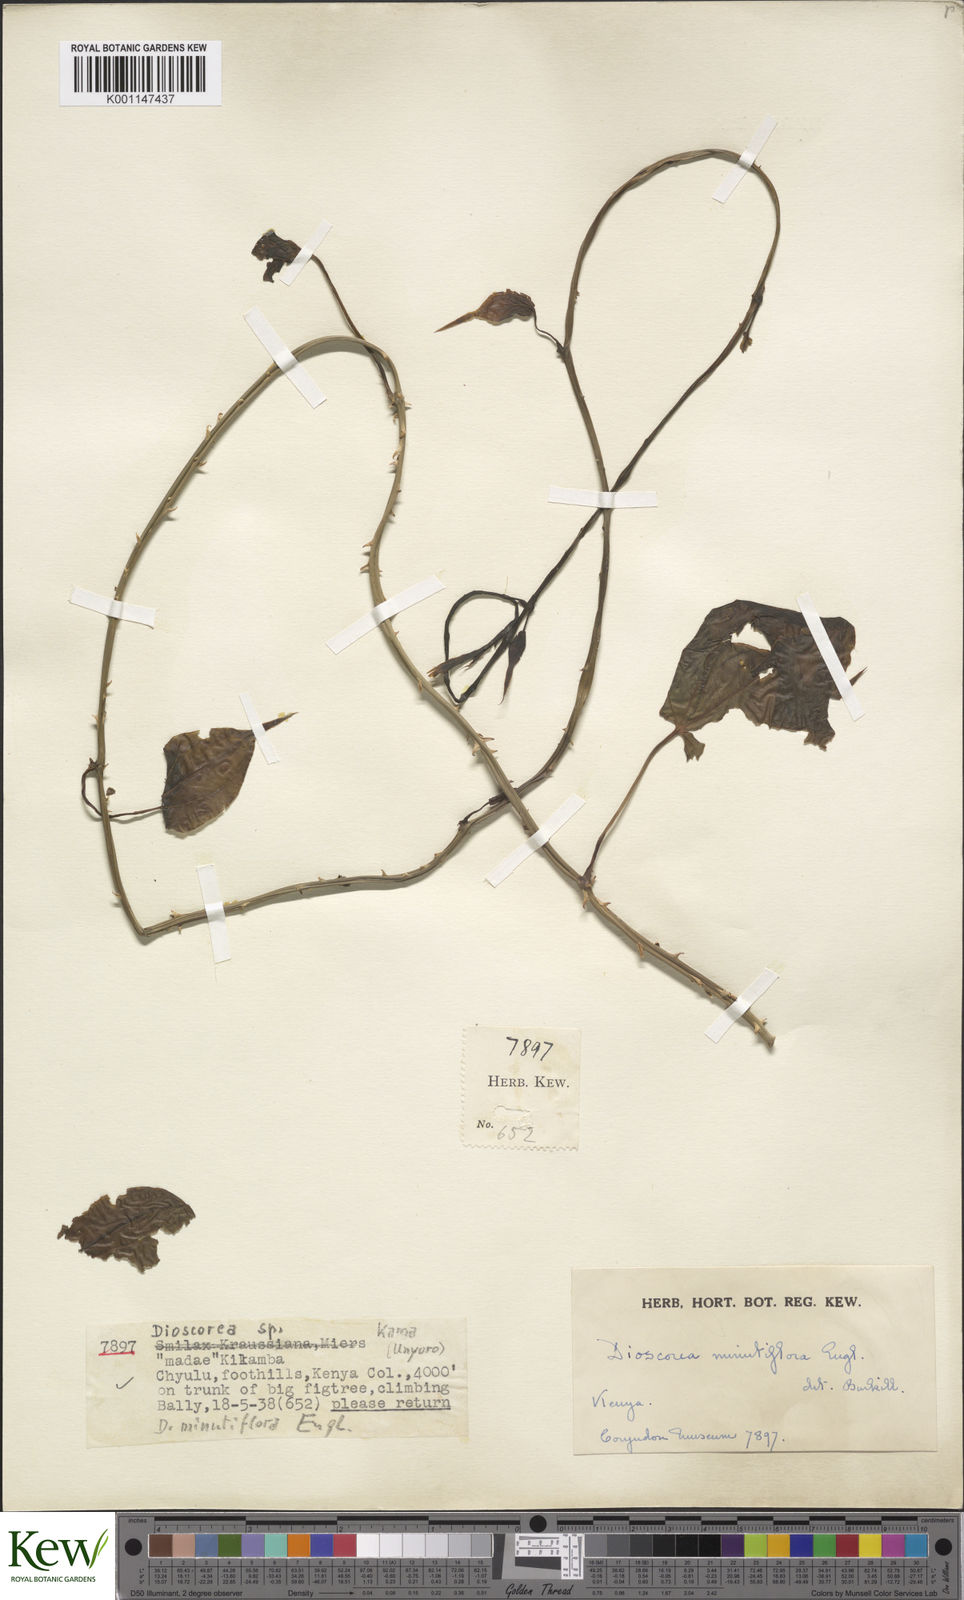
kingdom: Plantae
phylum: Tracheophyta
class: Liliopsida
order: Dioscoreales
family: Dioscoreaceae
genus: Dioscorea
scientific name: Dioscorea minutiflora
